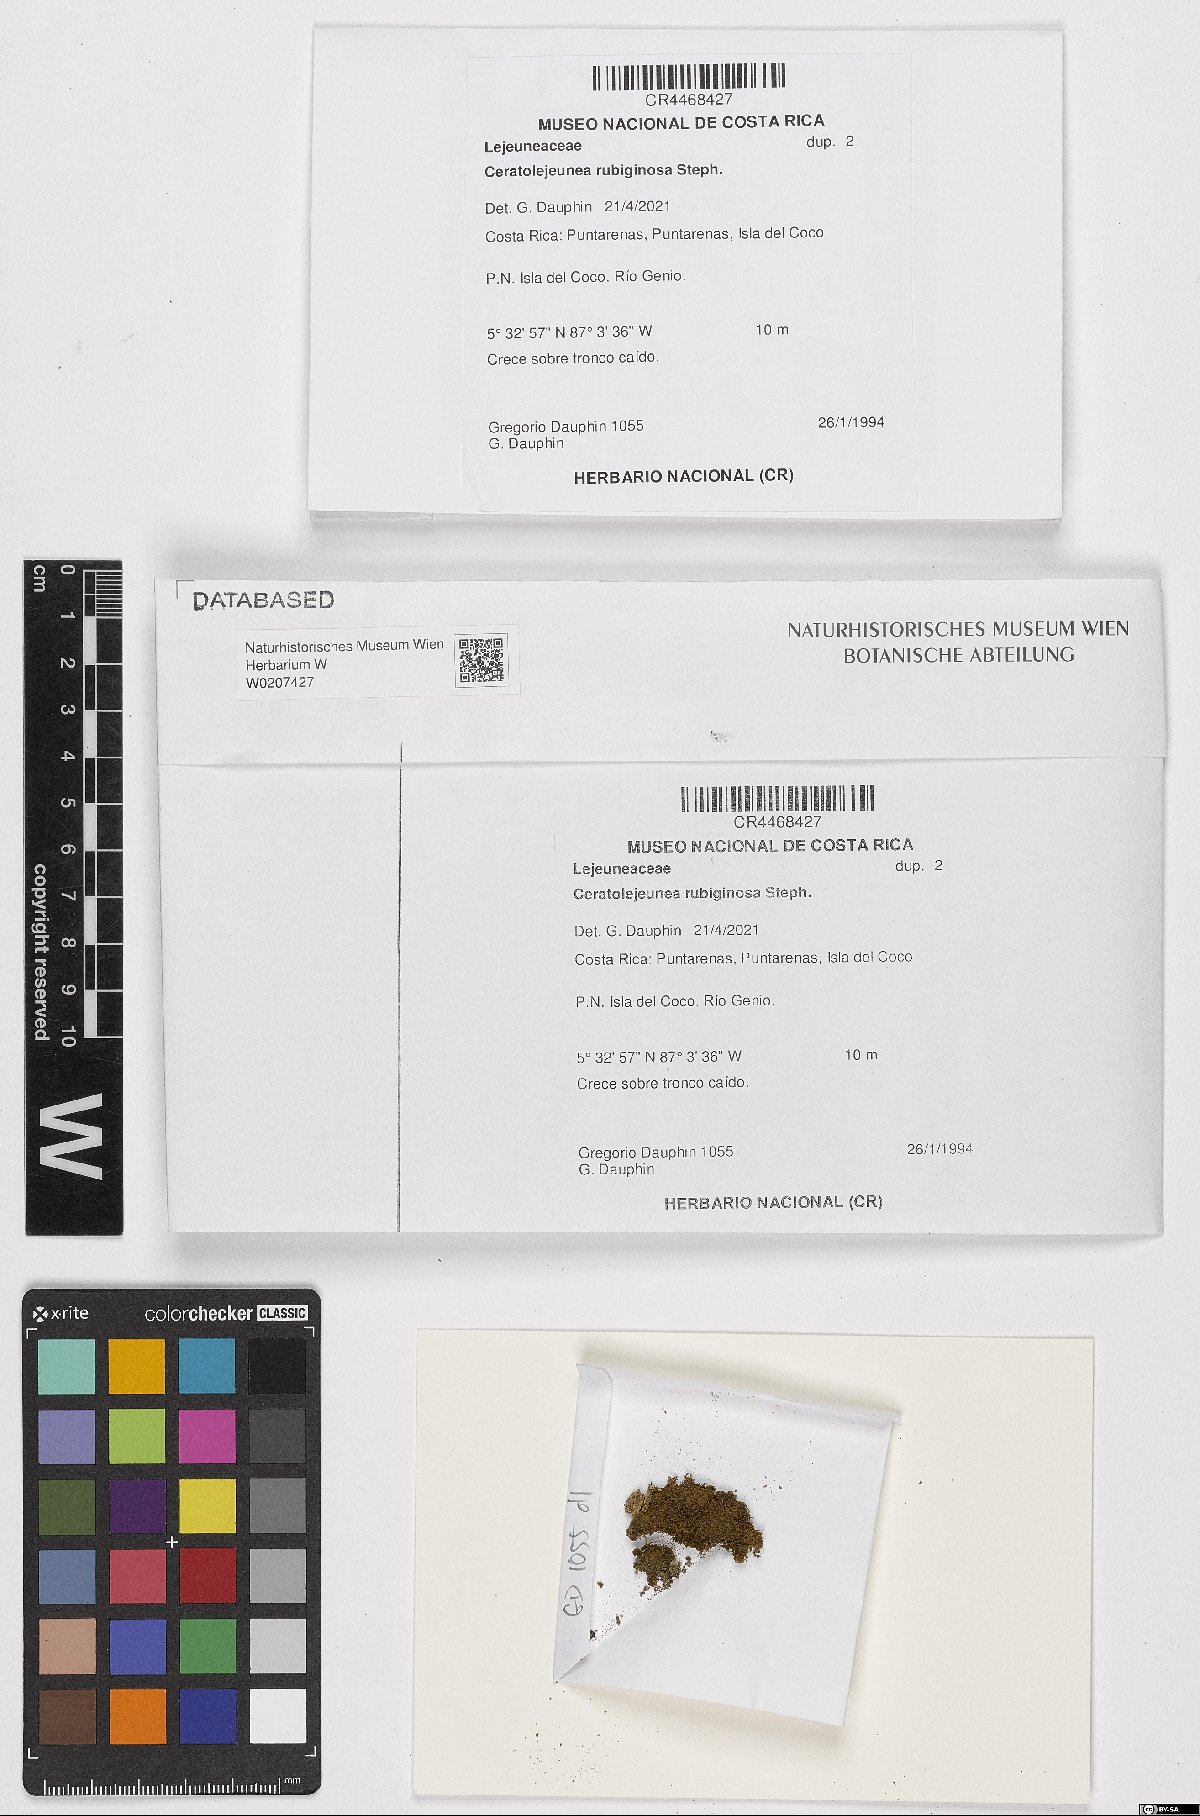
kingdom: Plantae
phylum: Marchantiophyta
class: Jungermanniopsida
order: Porellales
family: Lejeuneaceae
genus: Ceratolejeunea
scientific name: Ceratolejeunea rubiginosa
